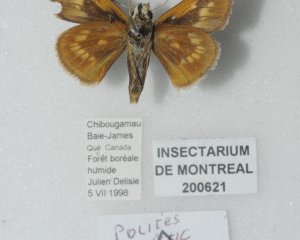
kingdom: Animalia
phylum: Arthropoda
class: Insecta
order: Lepidoptera
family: Hesperiidae
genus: Polites
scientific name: Polites
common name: Long Dash Skipper
